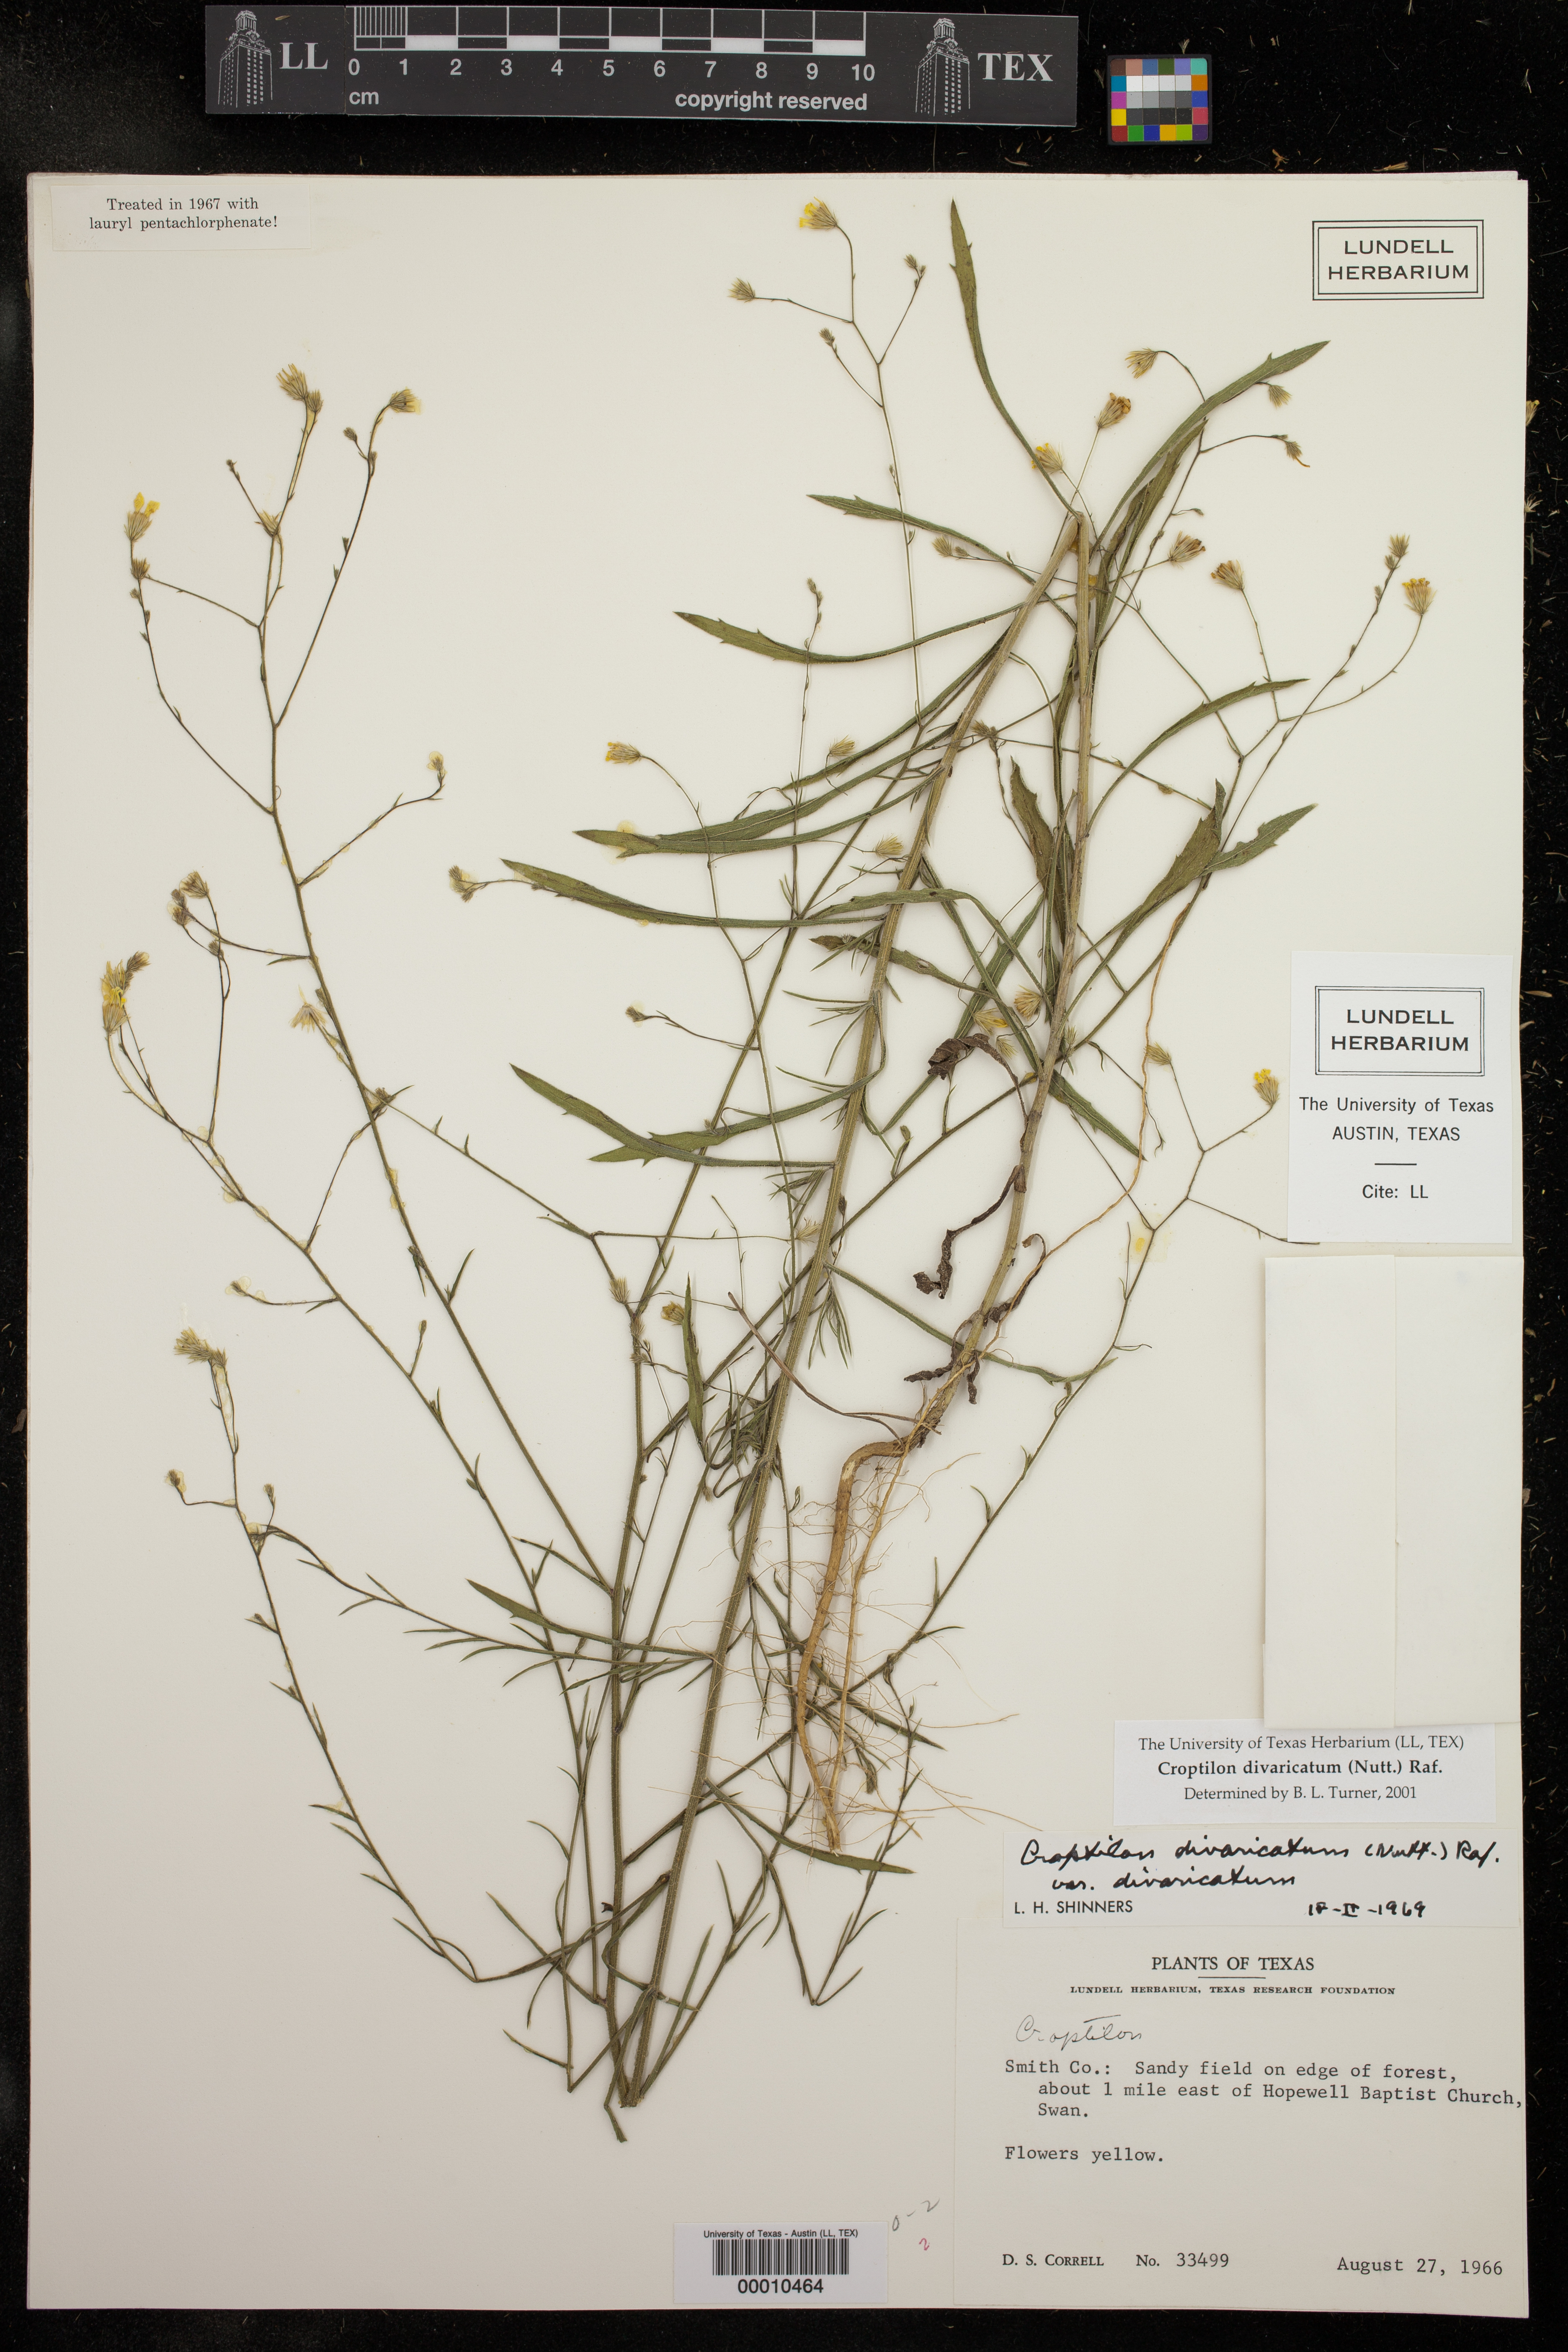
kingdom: Plantae
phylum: Tracheophyta
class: Magnoliopsida
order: Asterales
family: Asteraceae
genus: Croptilon
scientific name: Croptilon divaricatum
